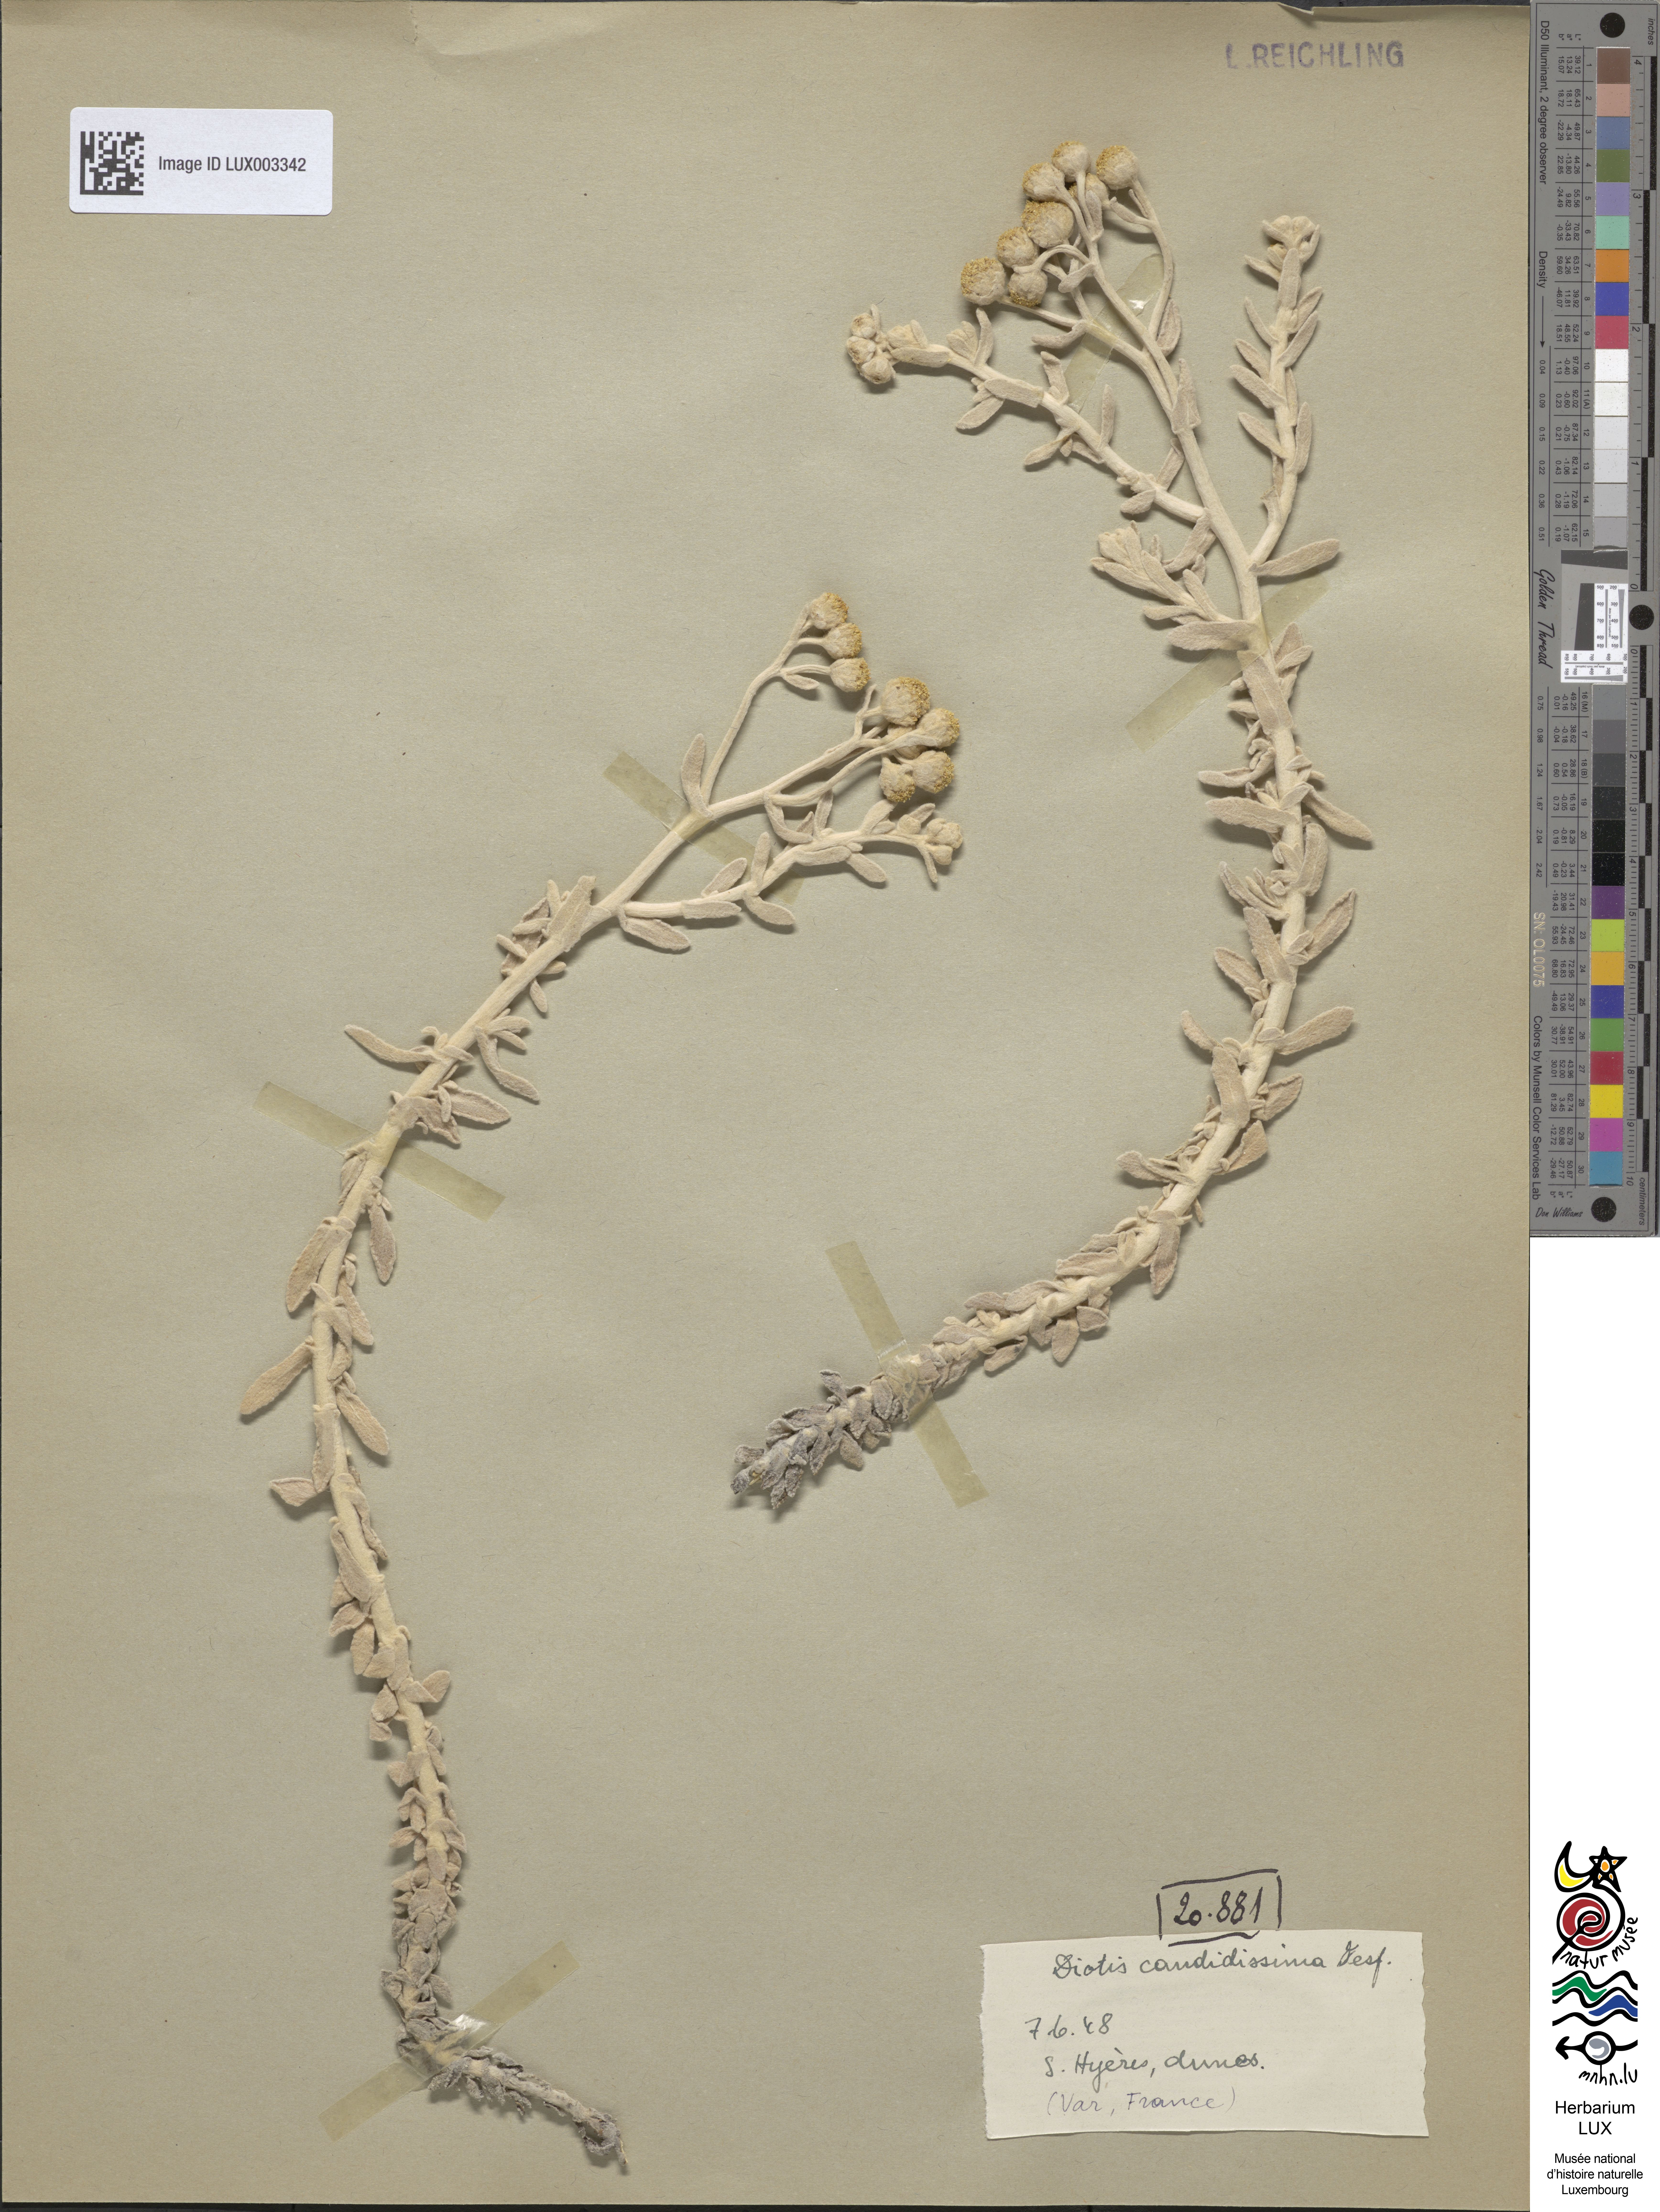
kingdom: Plantae
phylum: Tracheophyta
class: Magnoliopsida
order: Asterales
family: Asteraceae
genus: Achillea
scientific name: Achillea maritima
